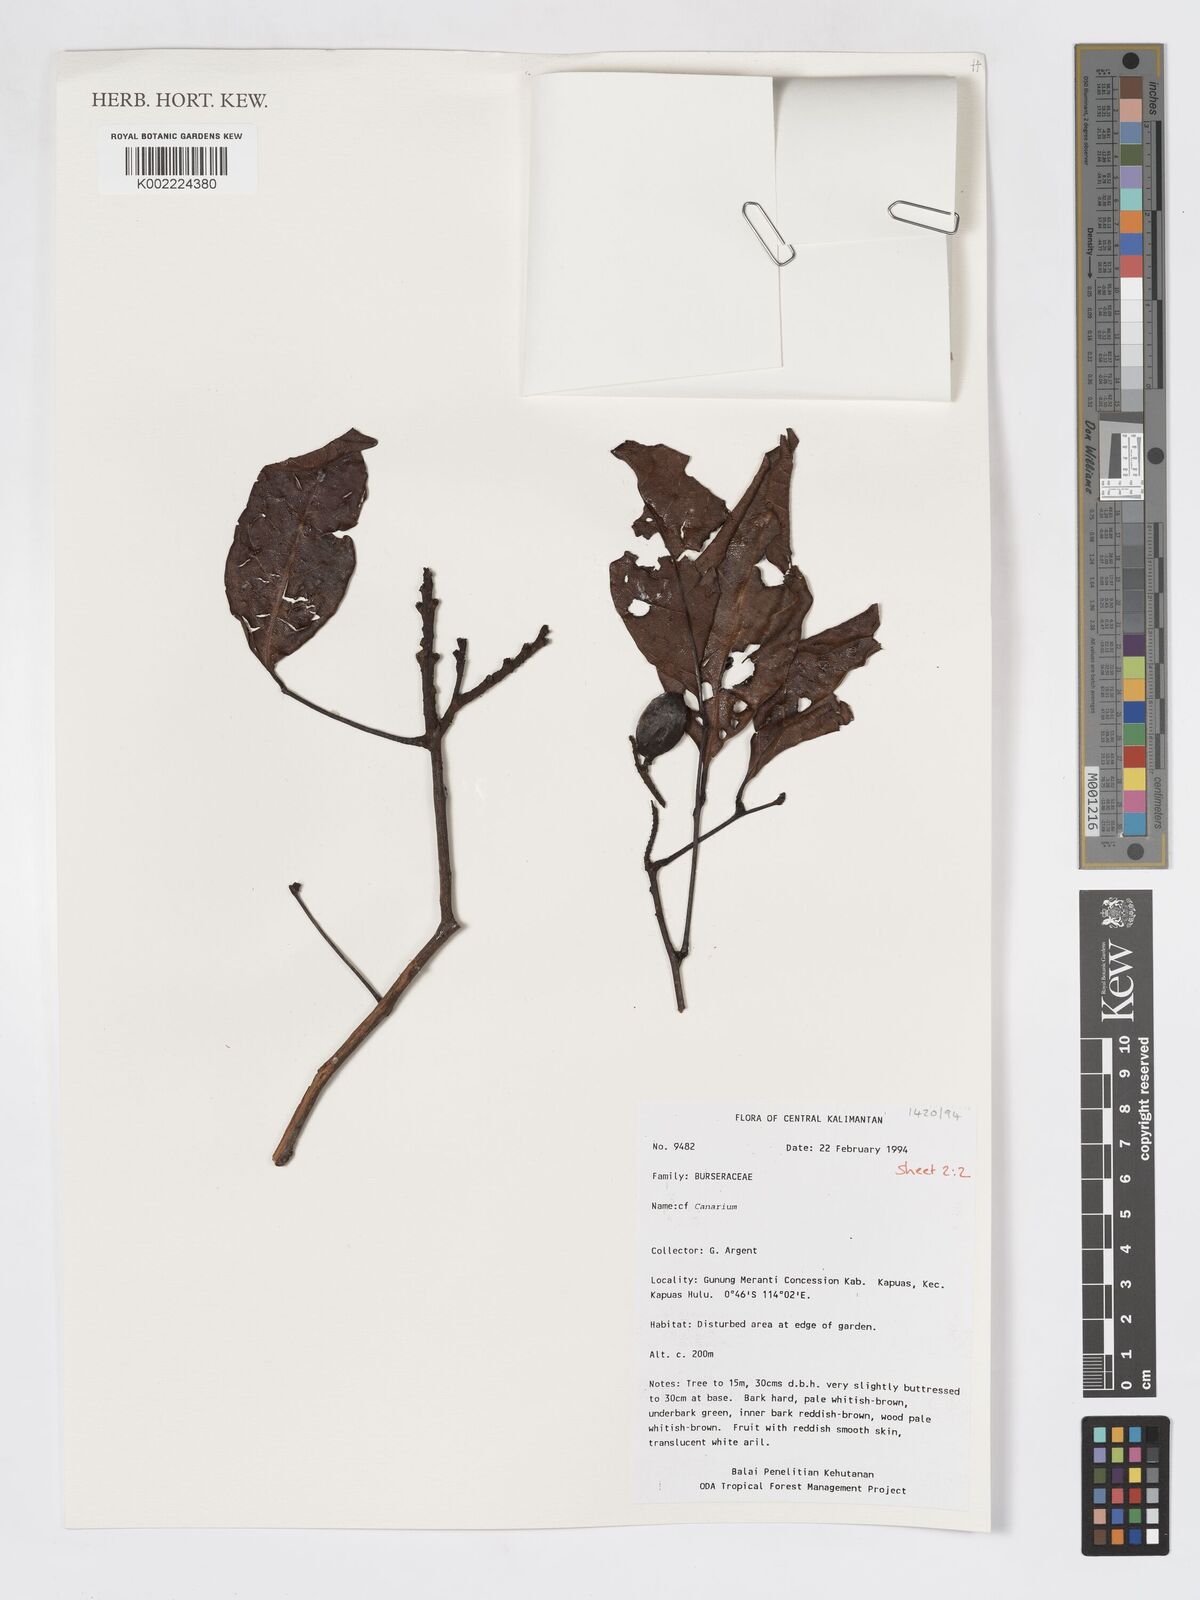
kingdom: Plantae
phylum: Tracheophyta
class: Magnoliopsida
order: Sapindales
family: Burseraceae
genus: Canarium
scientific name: Canarium
